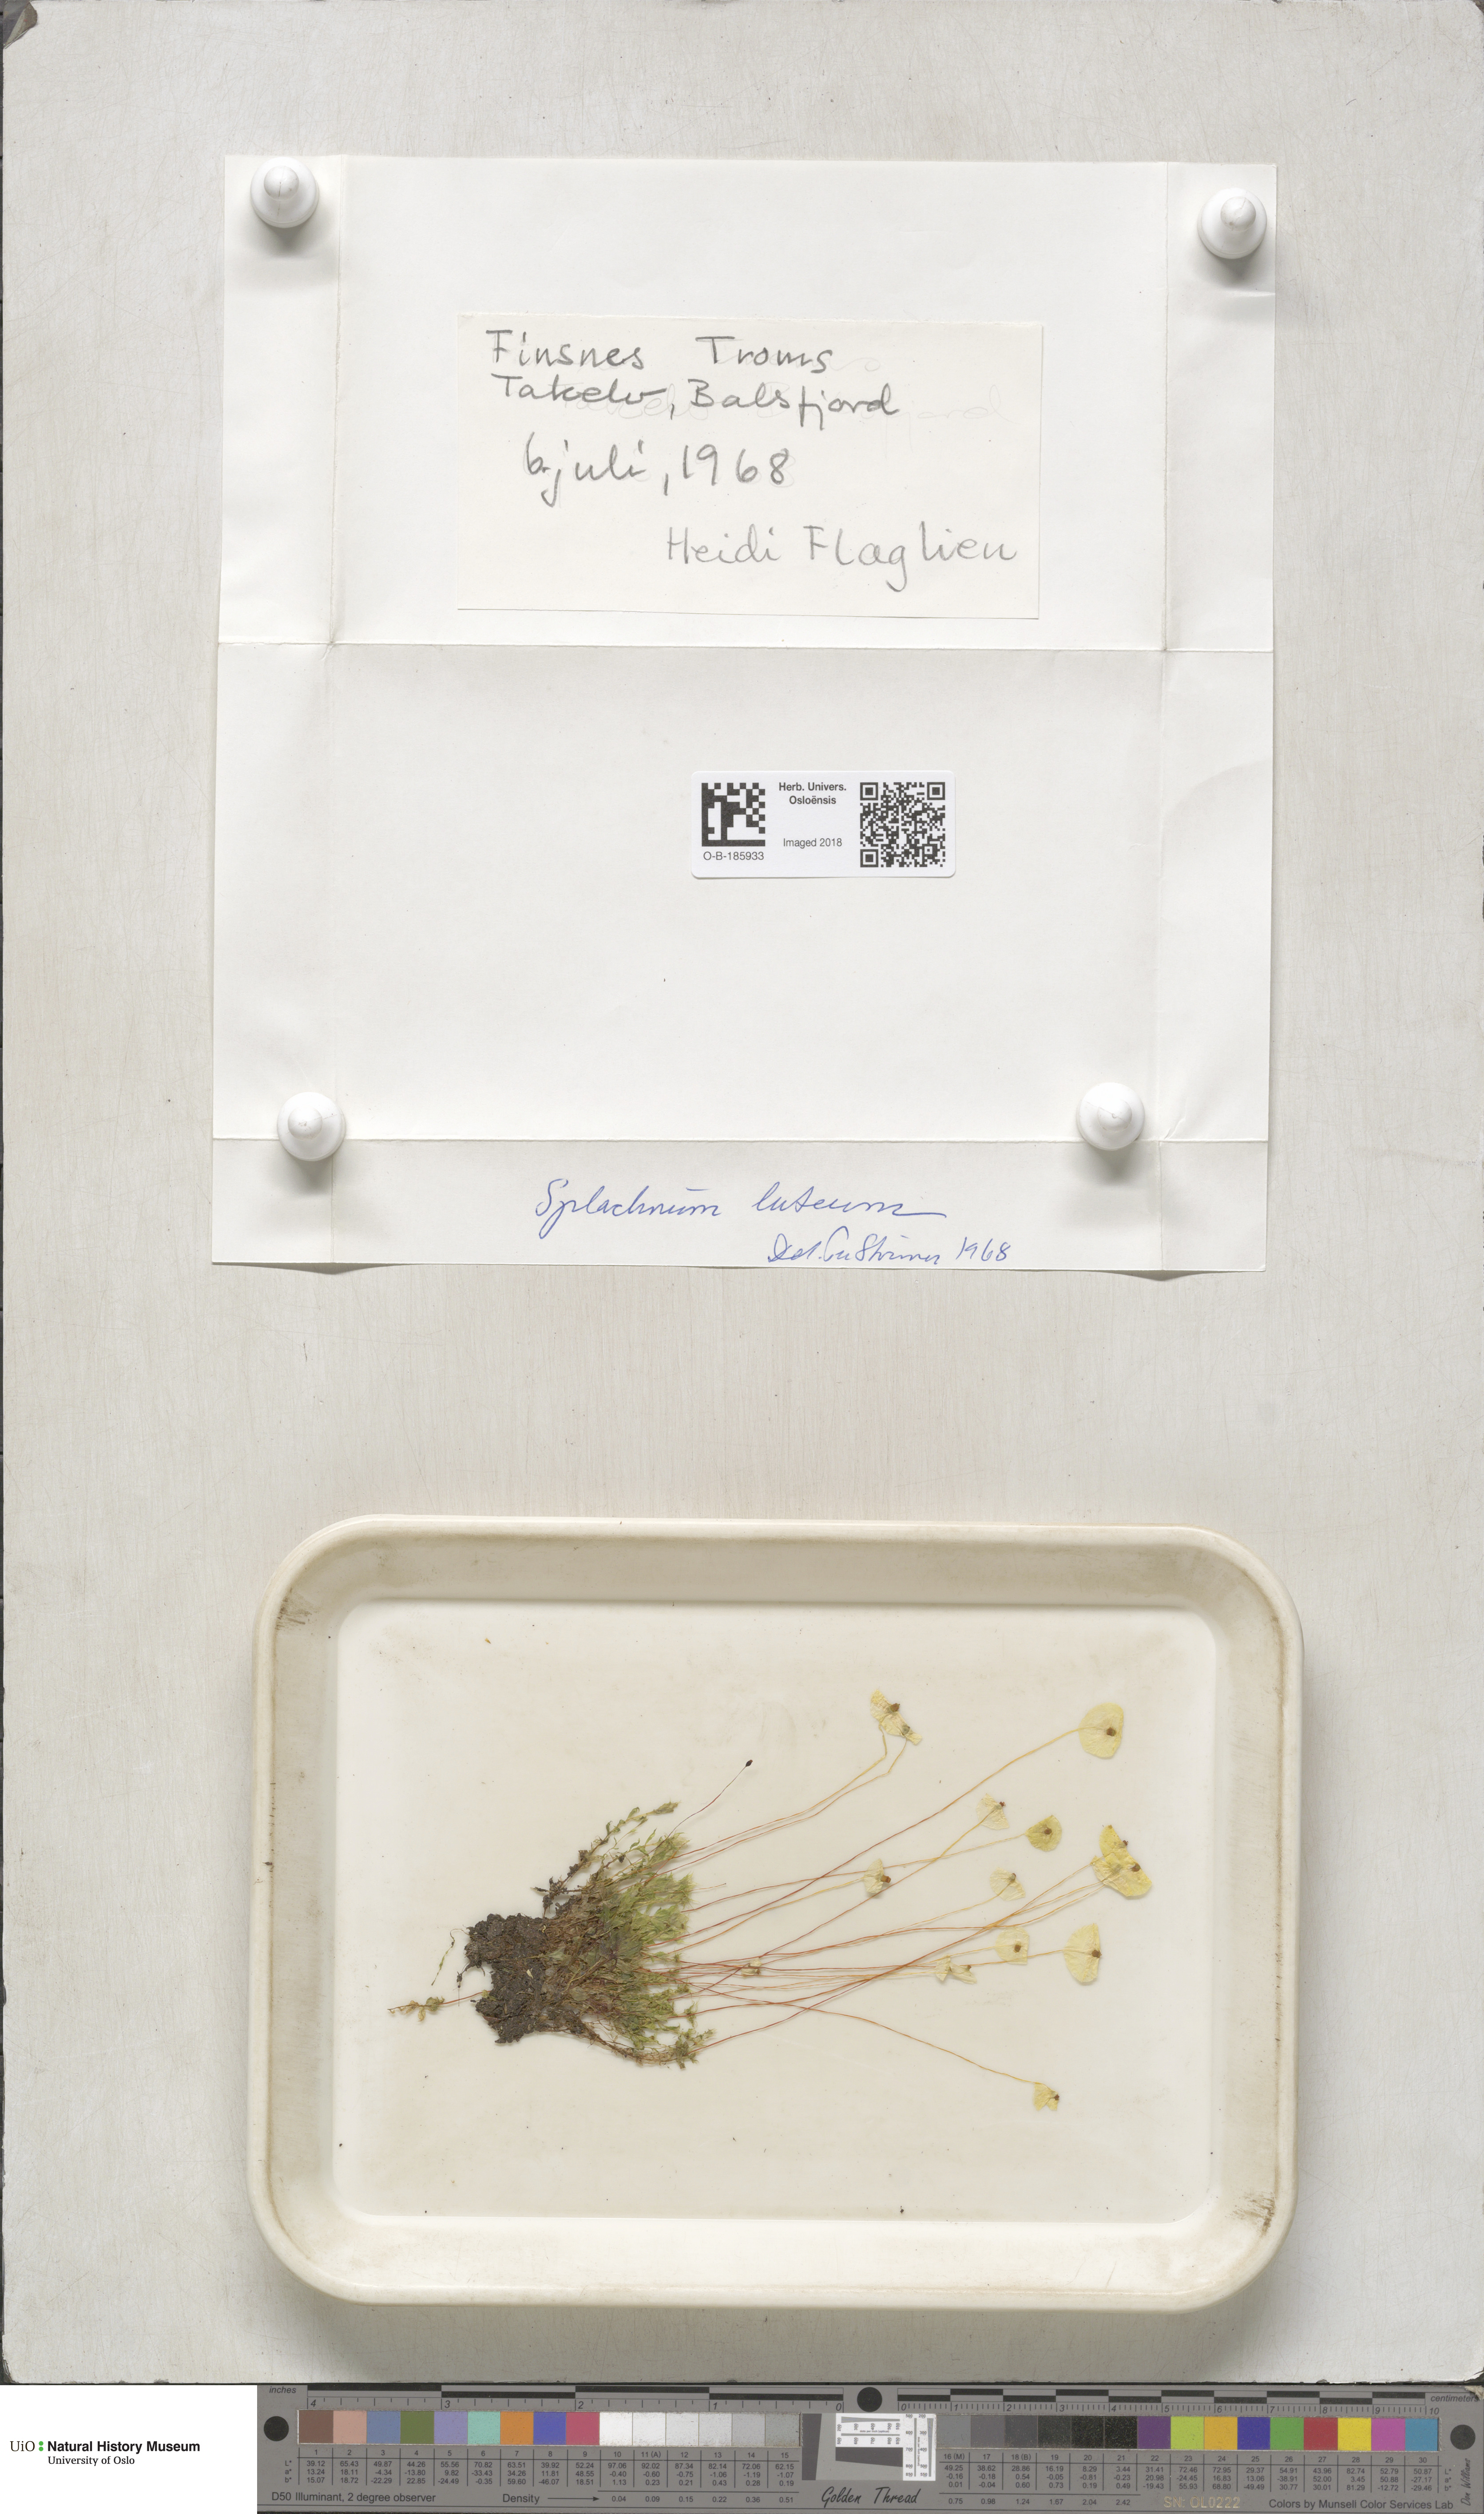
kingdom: Plantae
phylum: Bryophyta
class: Bryopsida
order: Splachnales
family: Splachnaceae
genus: Splachnum
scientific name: Splachnum luteum
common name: Yellow dung moss
